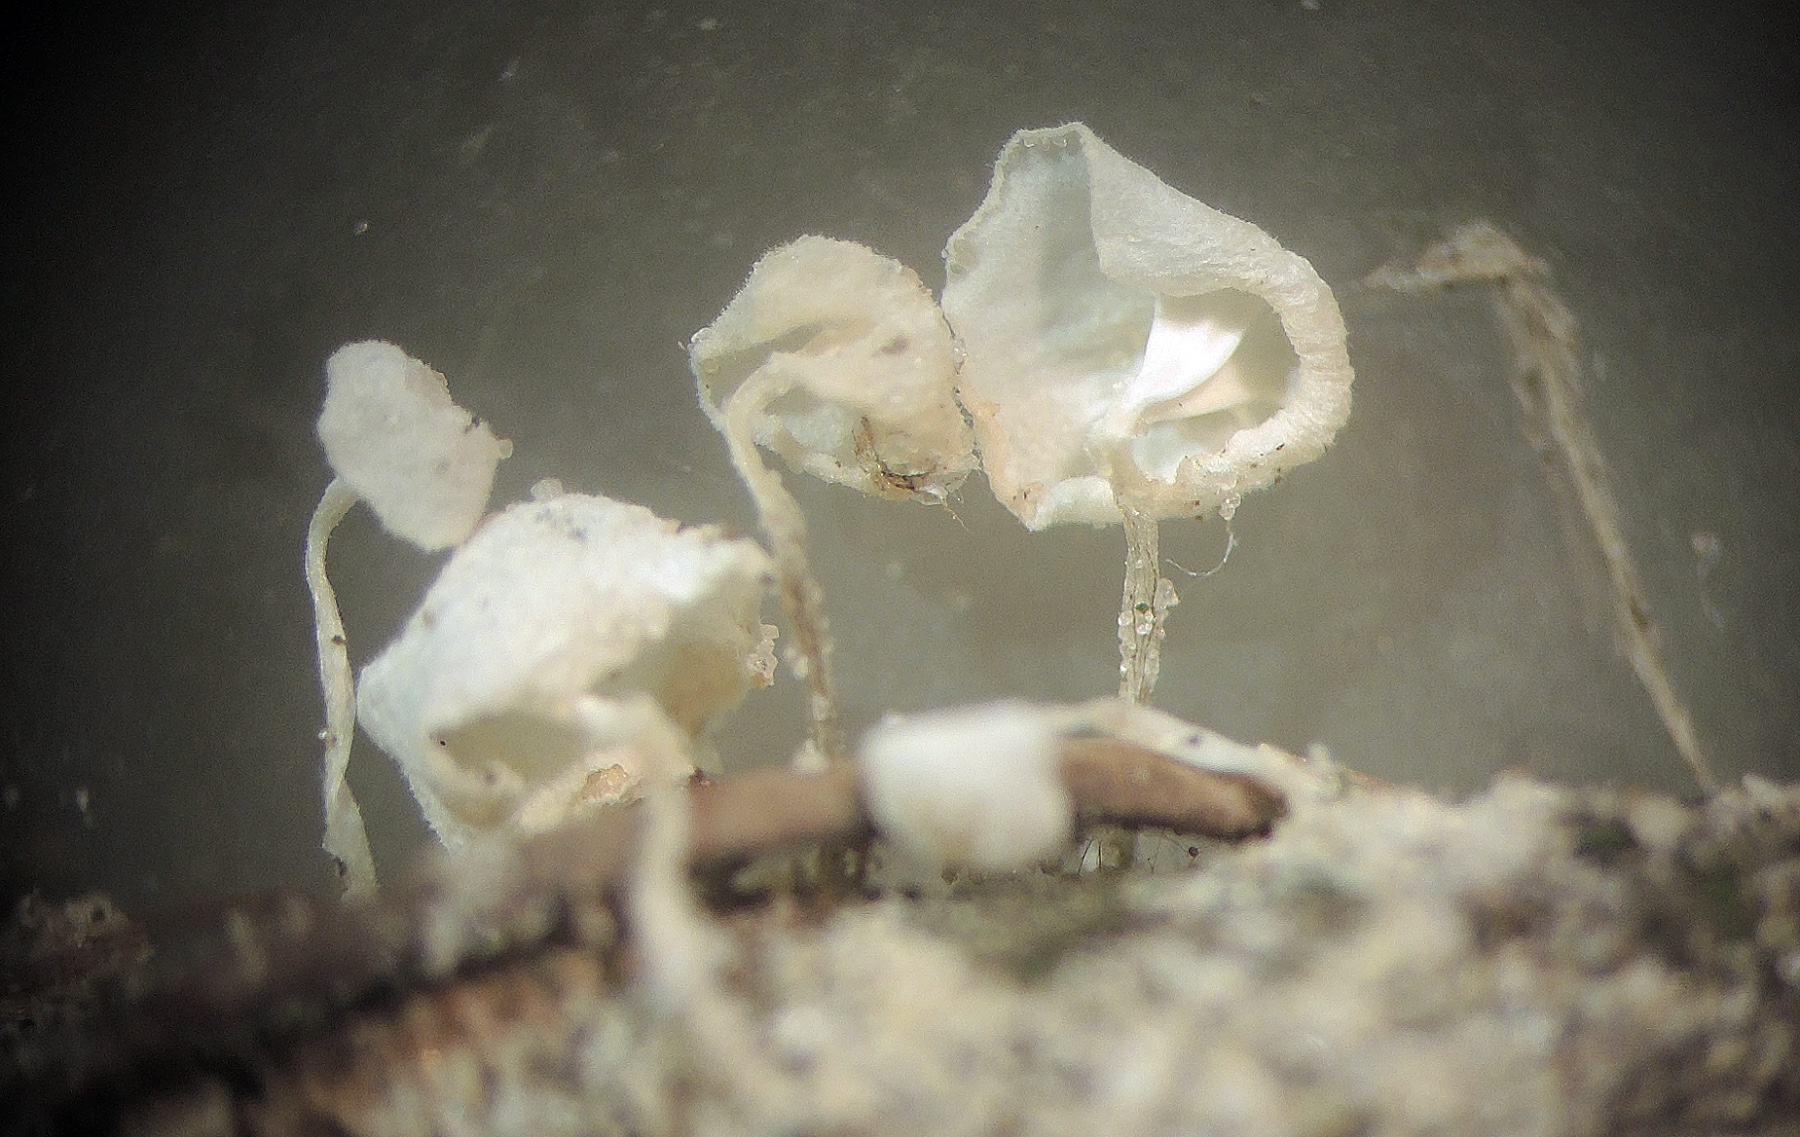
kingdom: Fungi
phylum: Basidiomycota
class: Agaricomycetes
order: Agaricales
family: Mycenaceae
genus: Hemimycena
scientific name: Hemimycena subtilis
